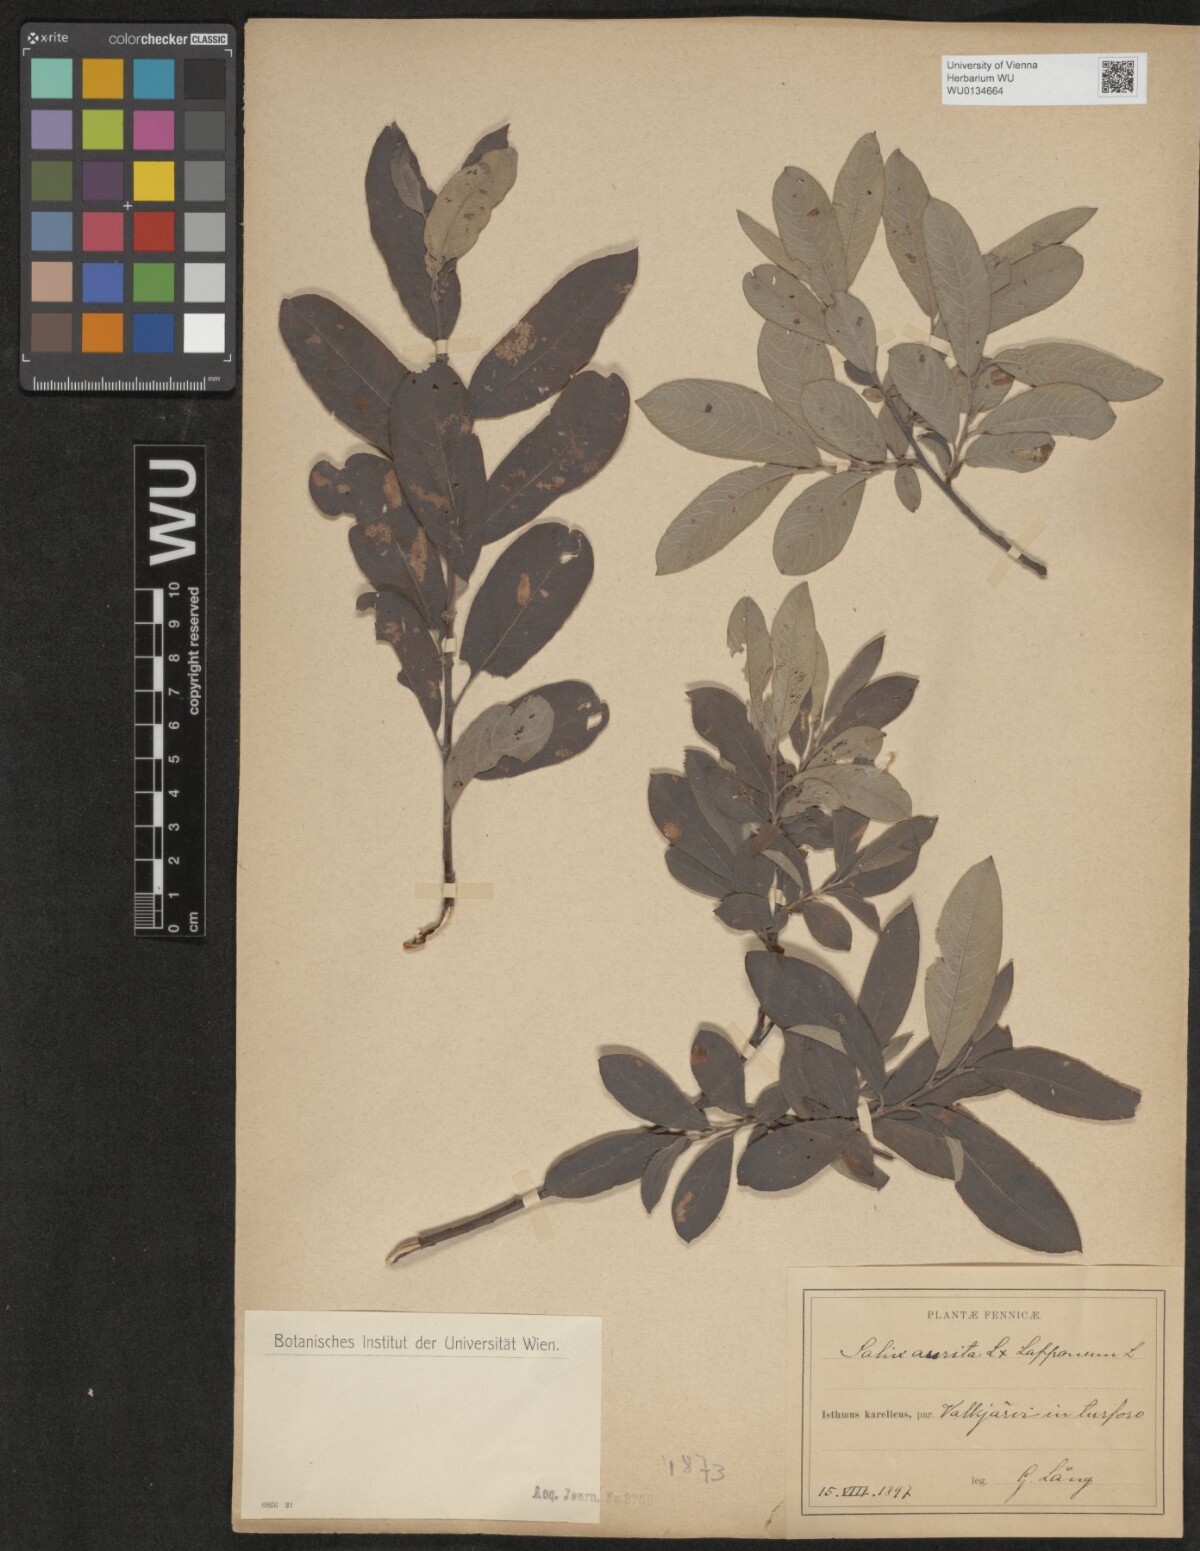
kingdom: Plantae
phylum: Tracheophyta
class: Magnoliopsida
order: Malpighiales
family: Salicaceae
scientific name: Salicaceae
